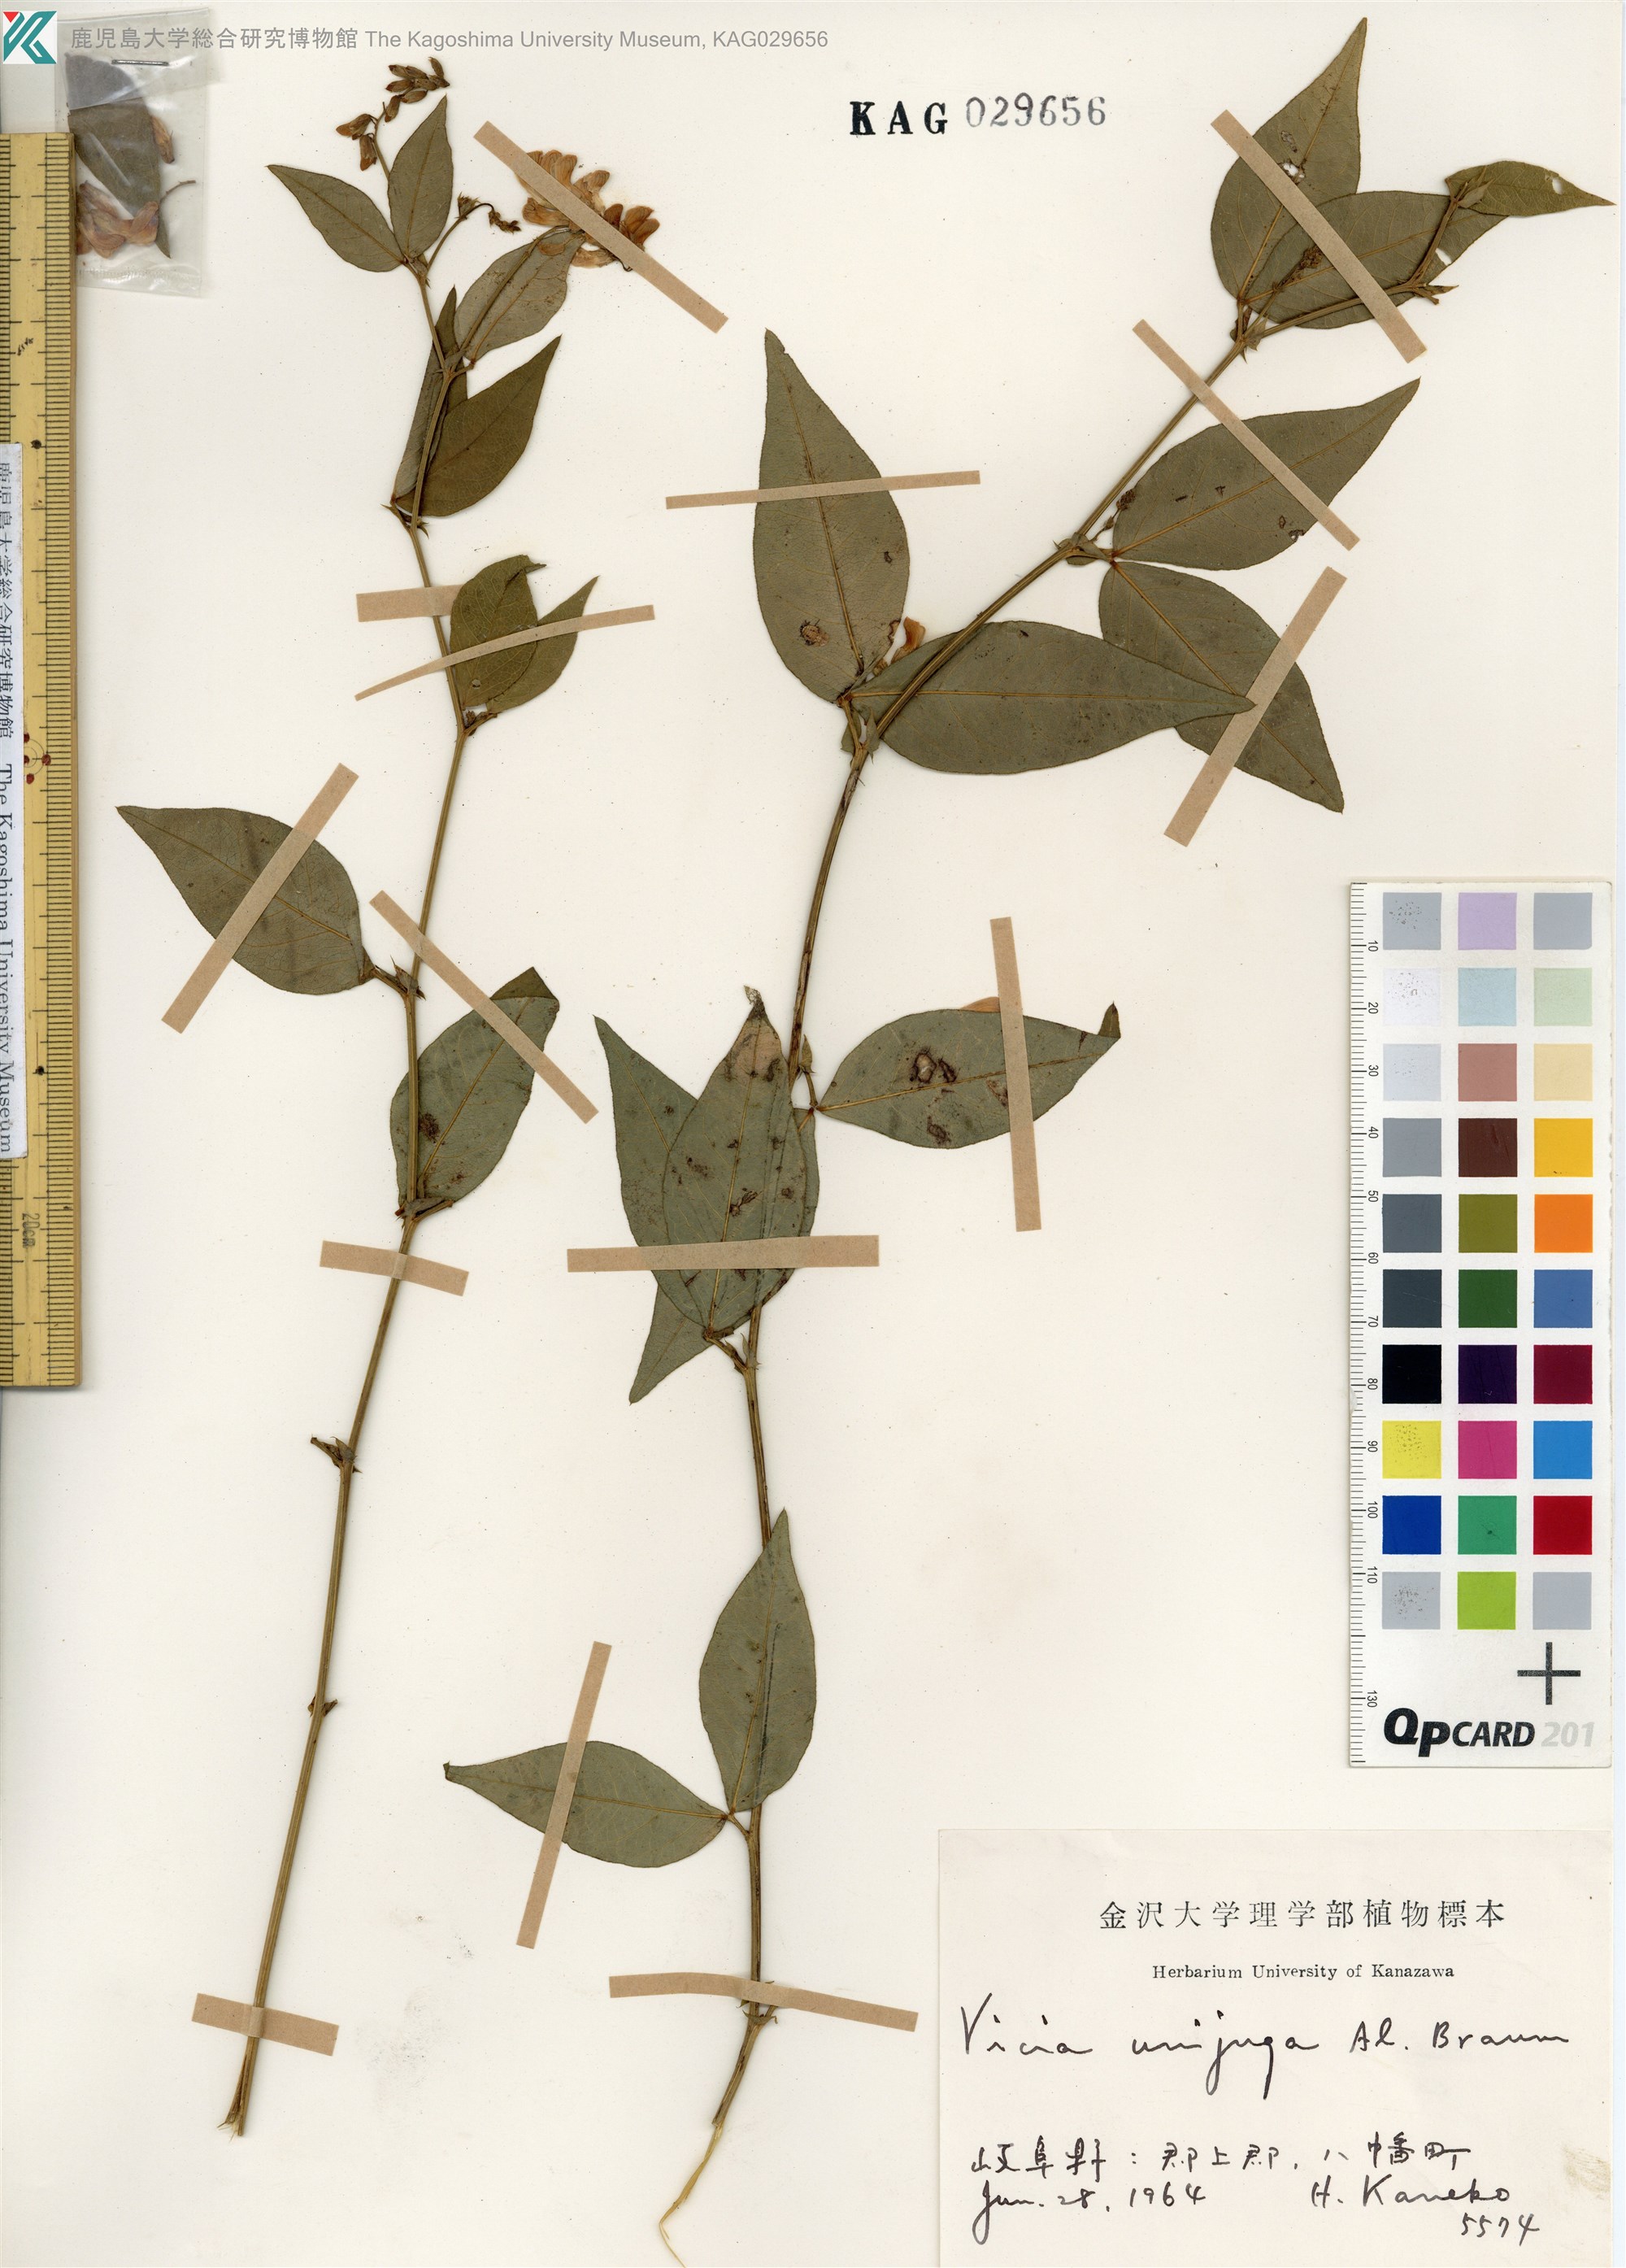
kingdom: Plantae
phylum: Tracheophyta
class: Magnoliopsida
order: Fabales
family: Fabaceae
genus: Vicia
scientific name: Vicia unijuga
